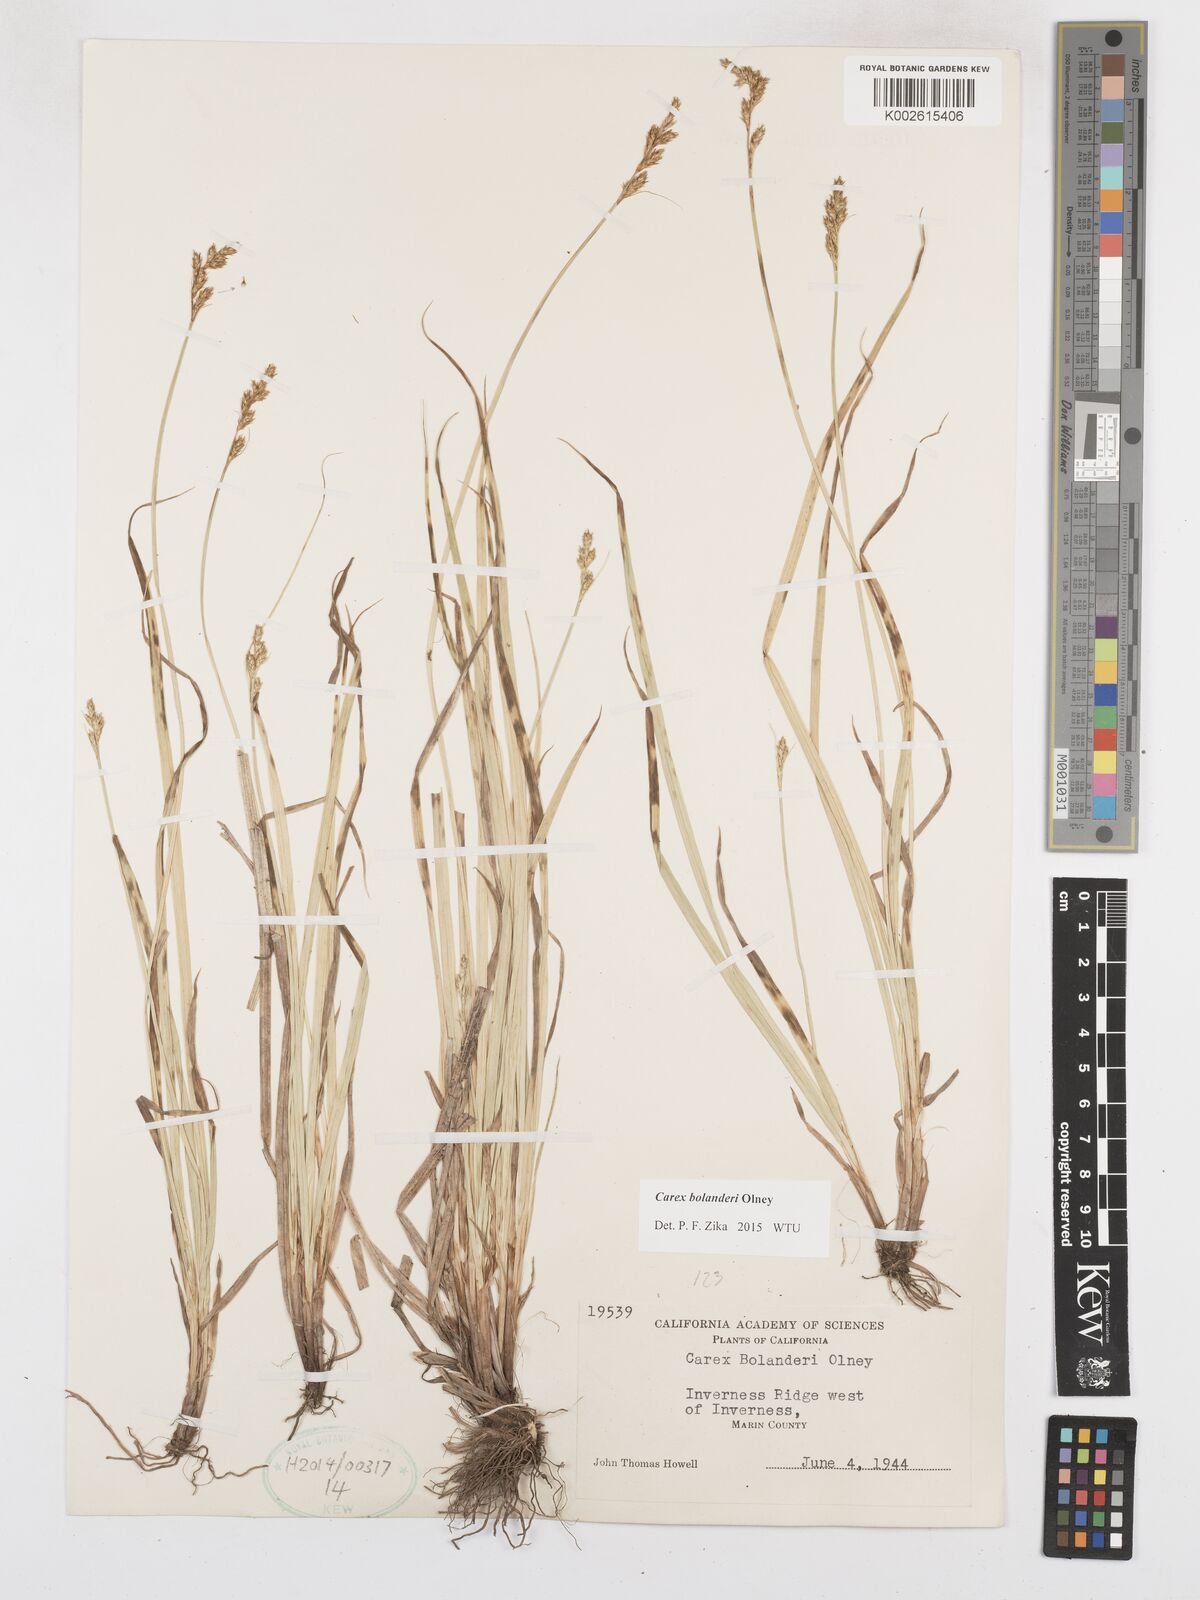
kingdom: Plantae
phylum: Tracheophyta
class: Liliopsida
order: Poales
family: Cyperaceae
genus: Carex
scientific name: Carex bolanderi
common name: Bolander's sedge
